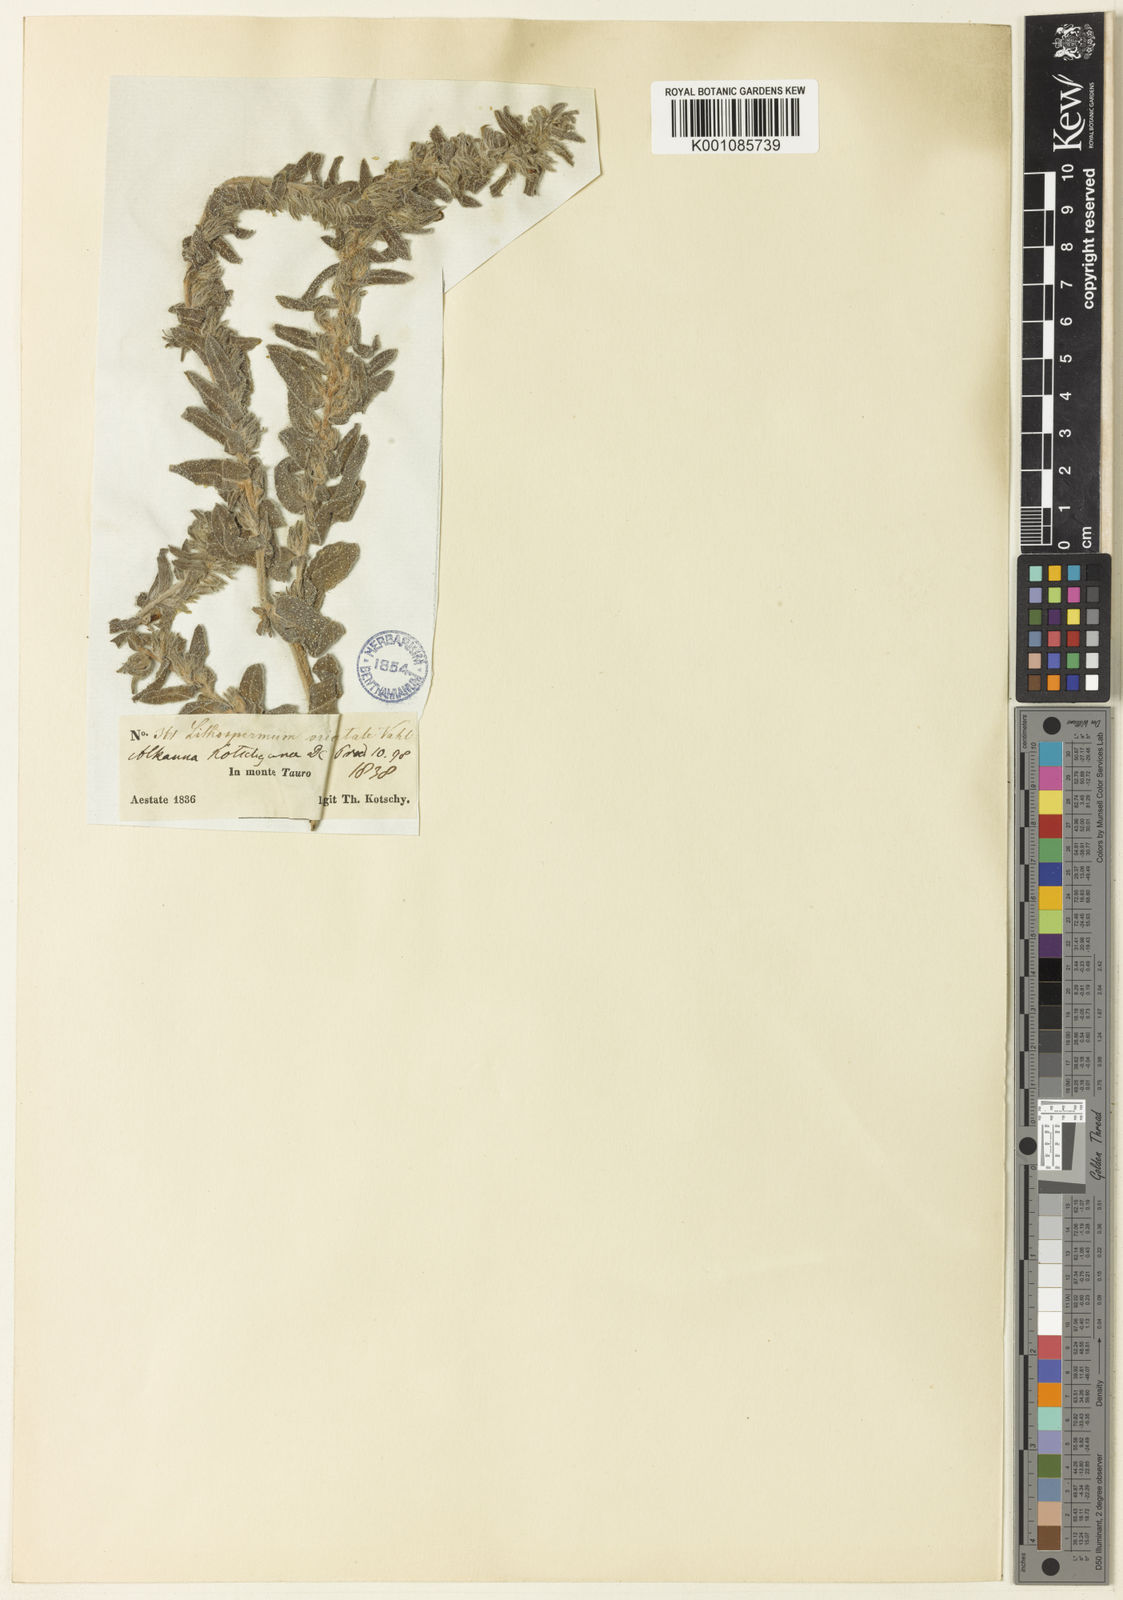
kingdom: Plantae
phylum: Tracheophyta
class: Magnoliopsida
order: Boraginales
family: Boraginaceae
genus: Alkanna
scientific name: Alkanna kotschyana
